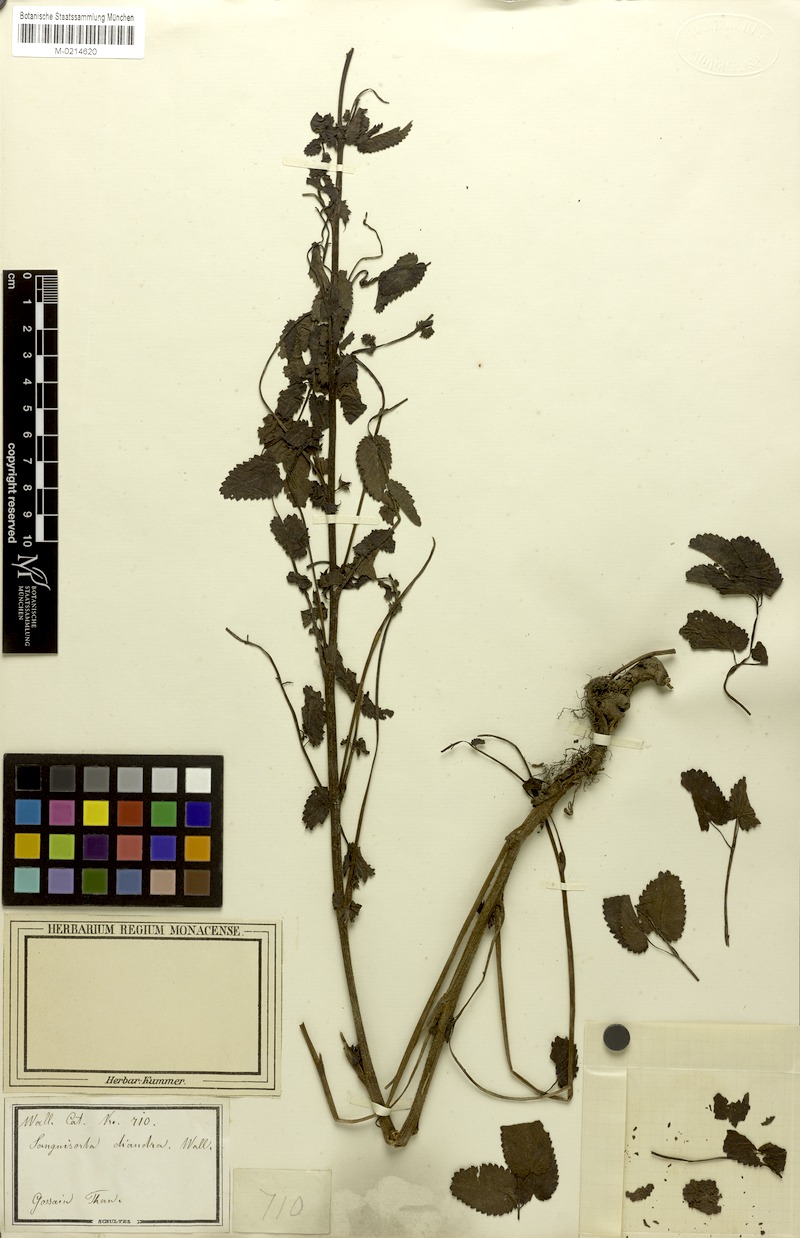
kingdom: Plantae
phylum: Tracheophyta
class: Magnoliopsida
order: Rosales
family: Rosaceae
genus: Poterium
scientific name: Poterium diandrum
